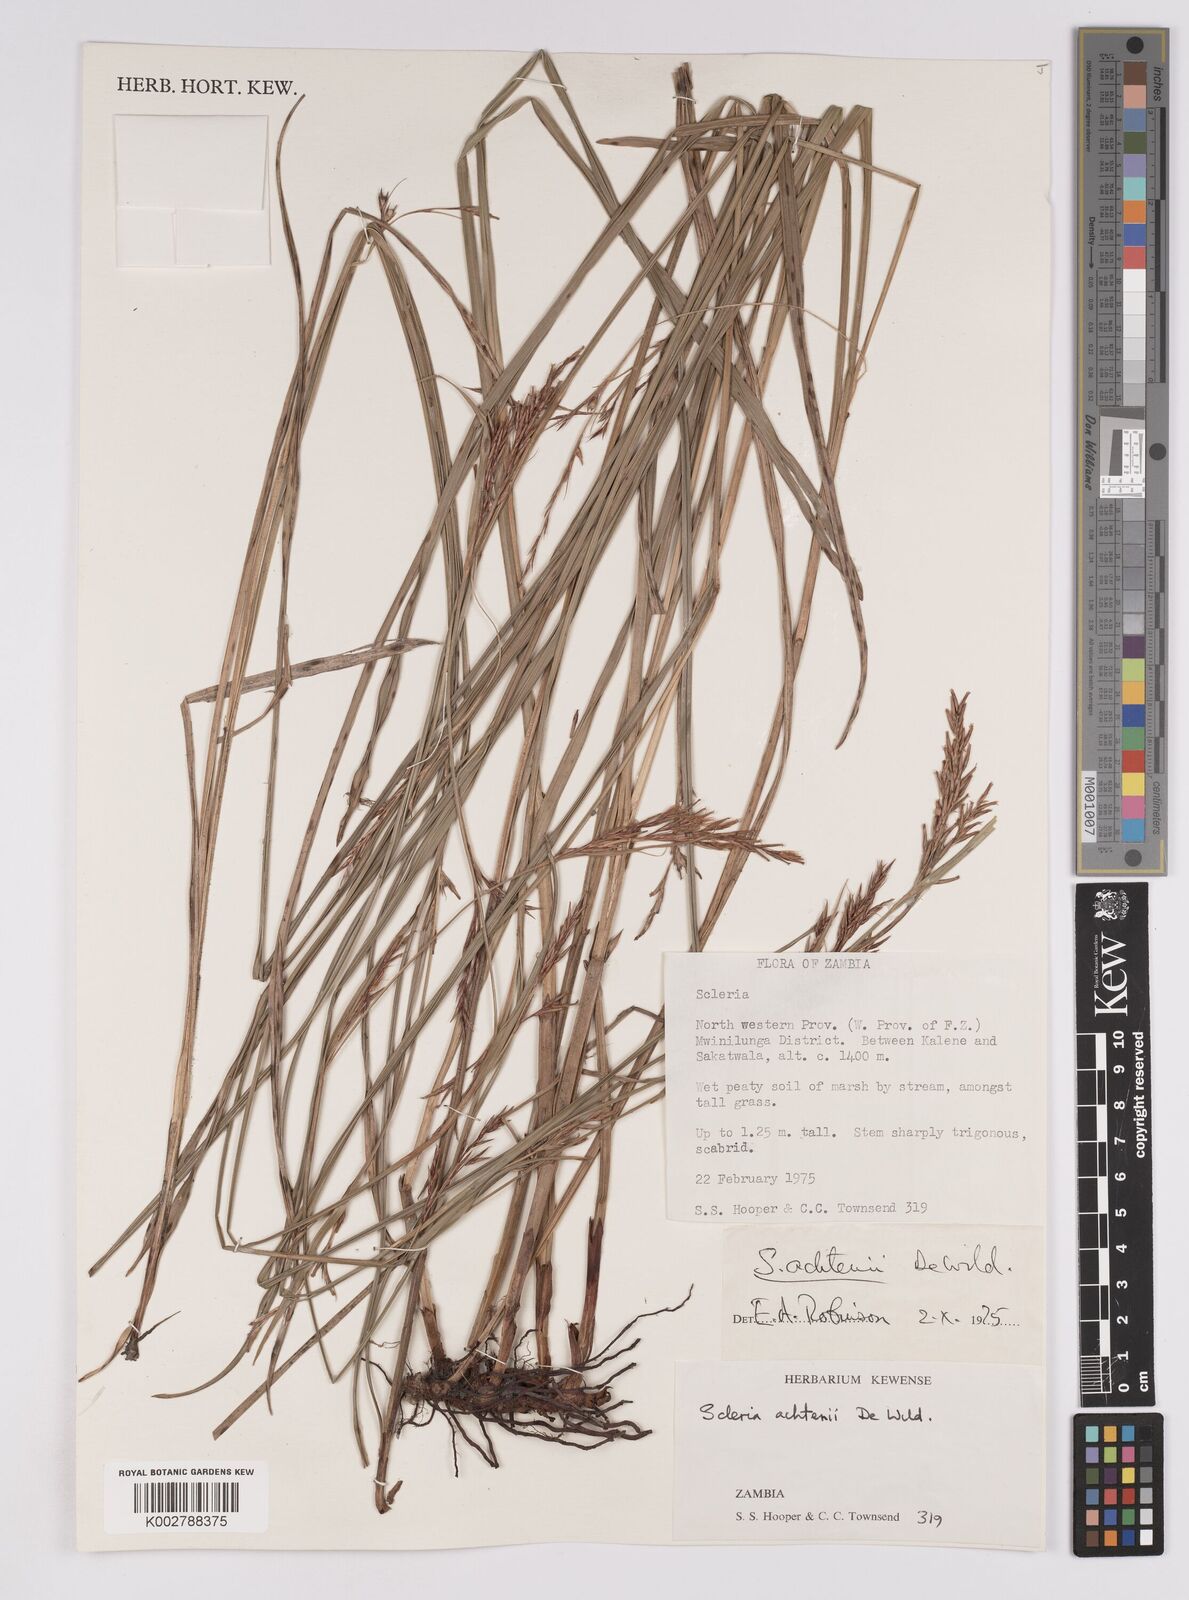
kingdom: Plantae
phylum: Tracheophyta
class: Liliopsida
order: Poales
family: Cyperaceae
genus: Scleria
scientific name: Scleria achtenii
